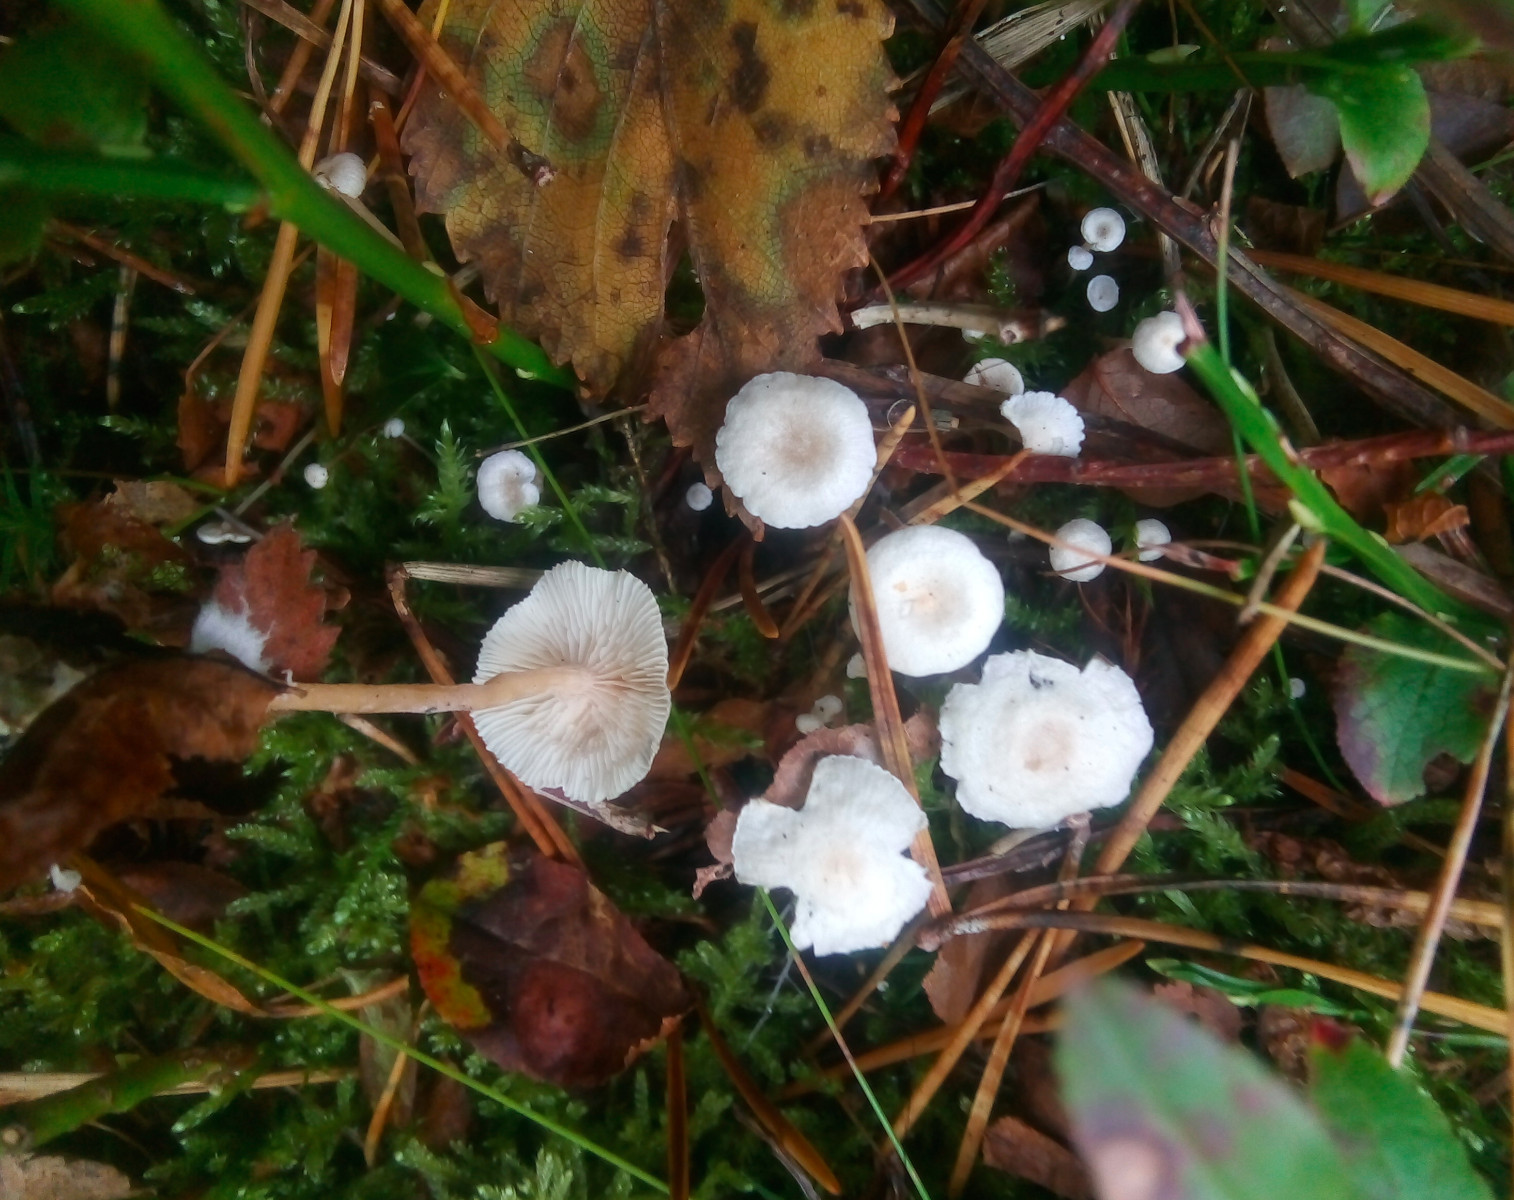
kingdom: Fungi
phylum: Basidiomycota
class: Agaricomycetes
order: Agaricales
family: Tricholomataceae
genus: Collybia
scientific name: Collybia
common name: lighat
